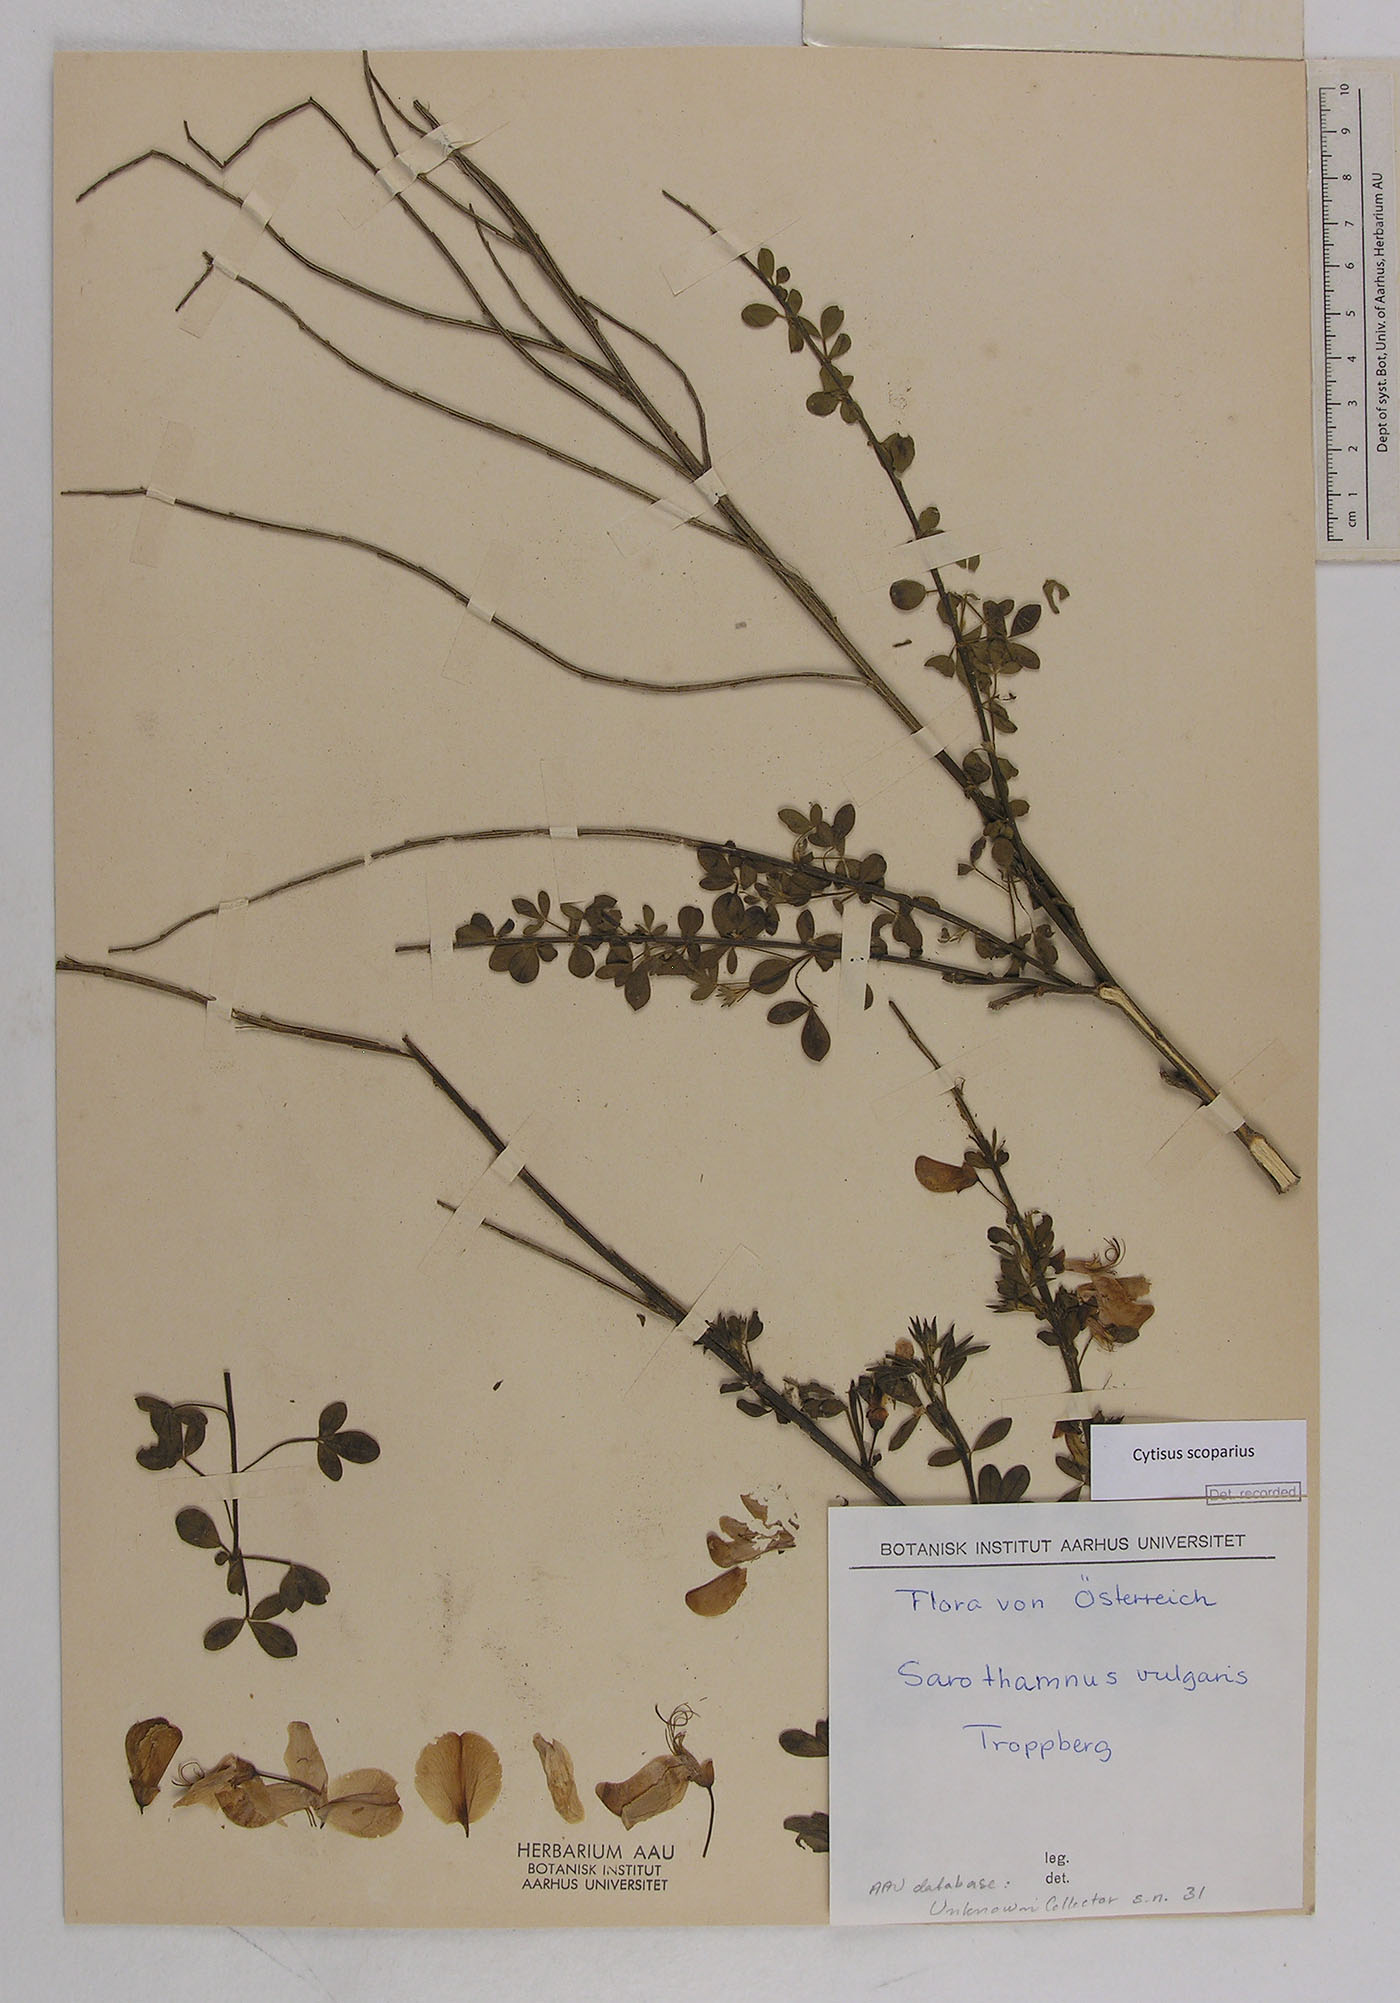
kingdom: Plantae
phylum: Tracheophyta
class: Magnoliopsida
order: Fabales
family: Fabaceae
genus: Cytisus
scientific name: Cytisus scoparius
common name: Scotch broom
